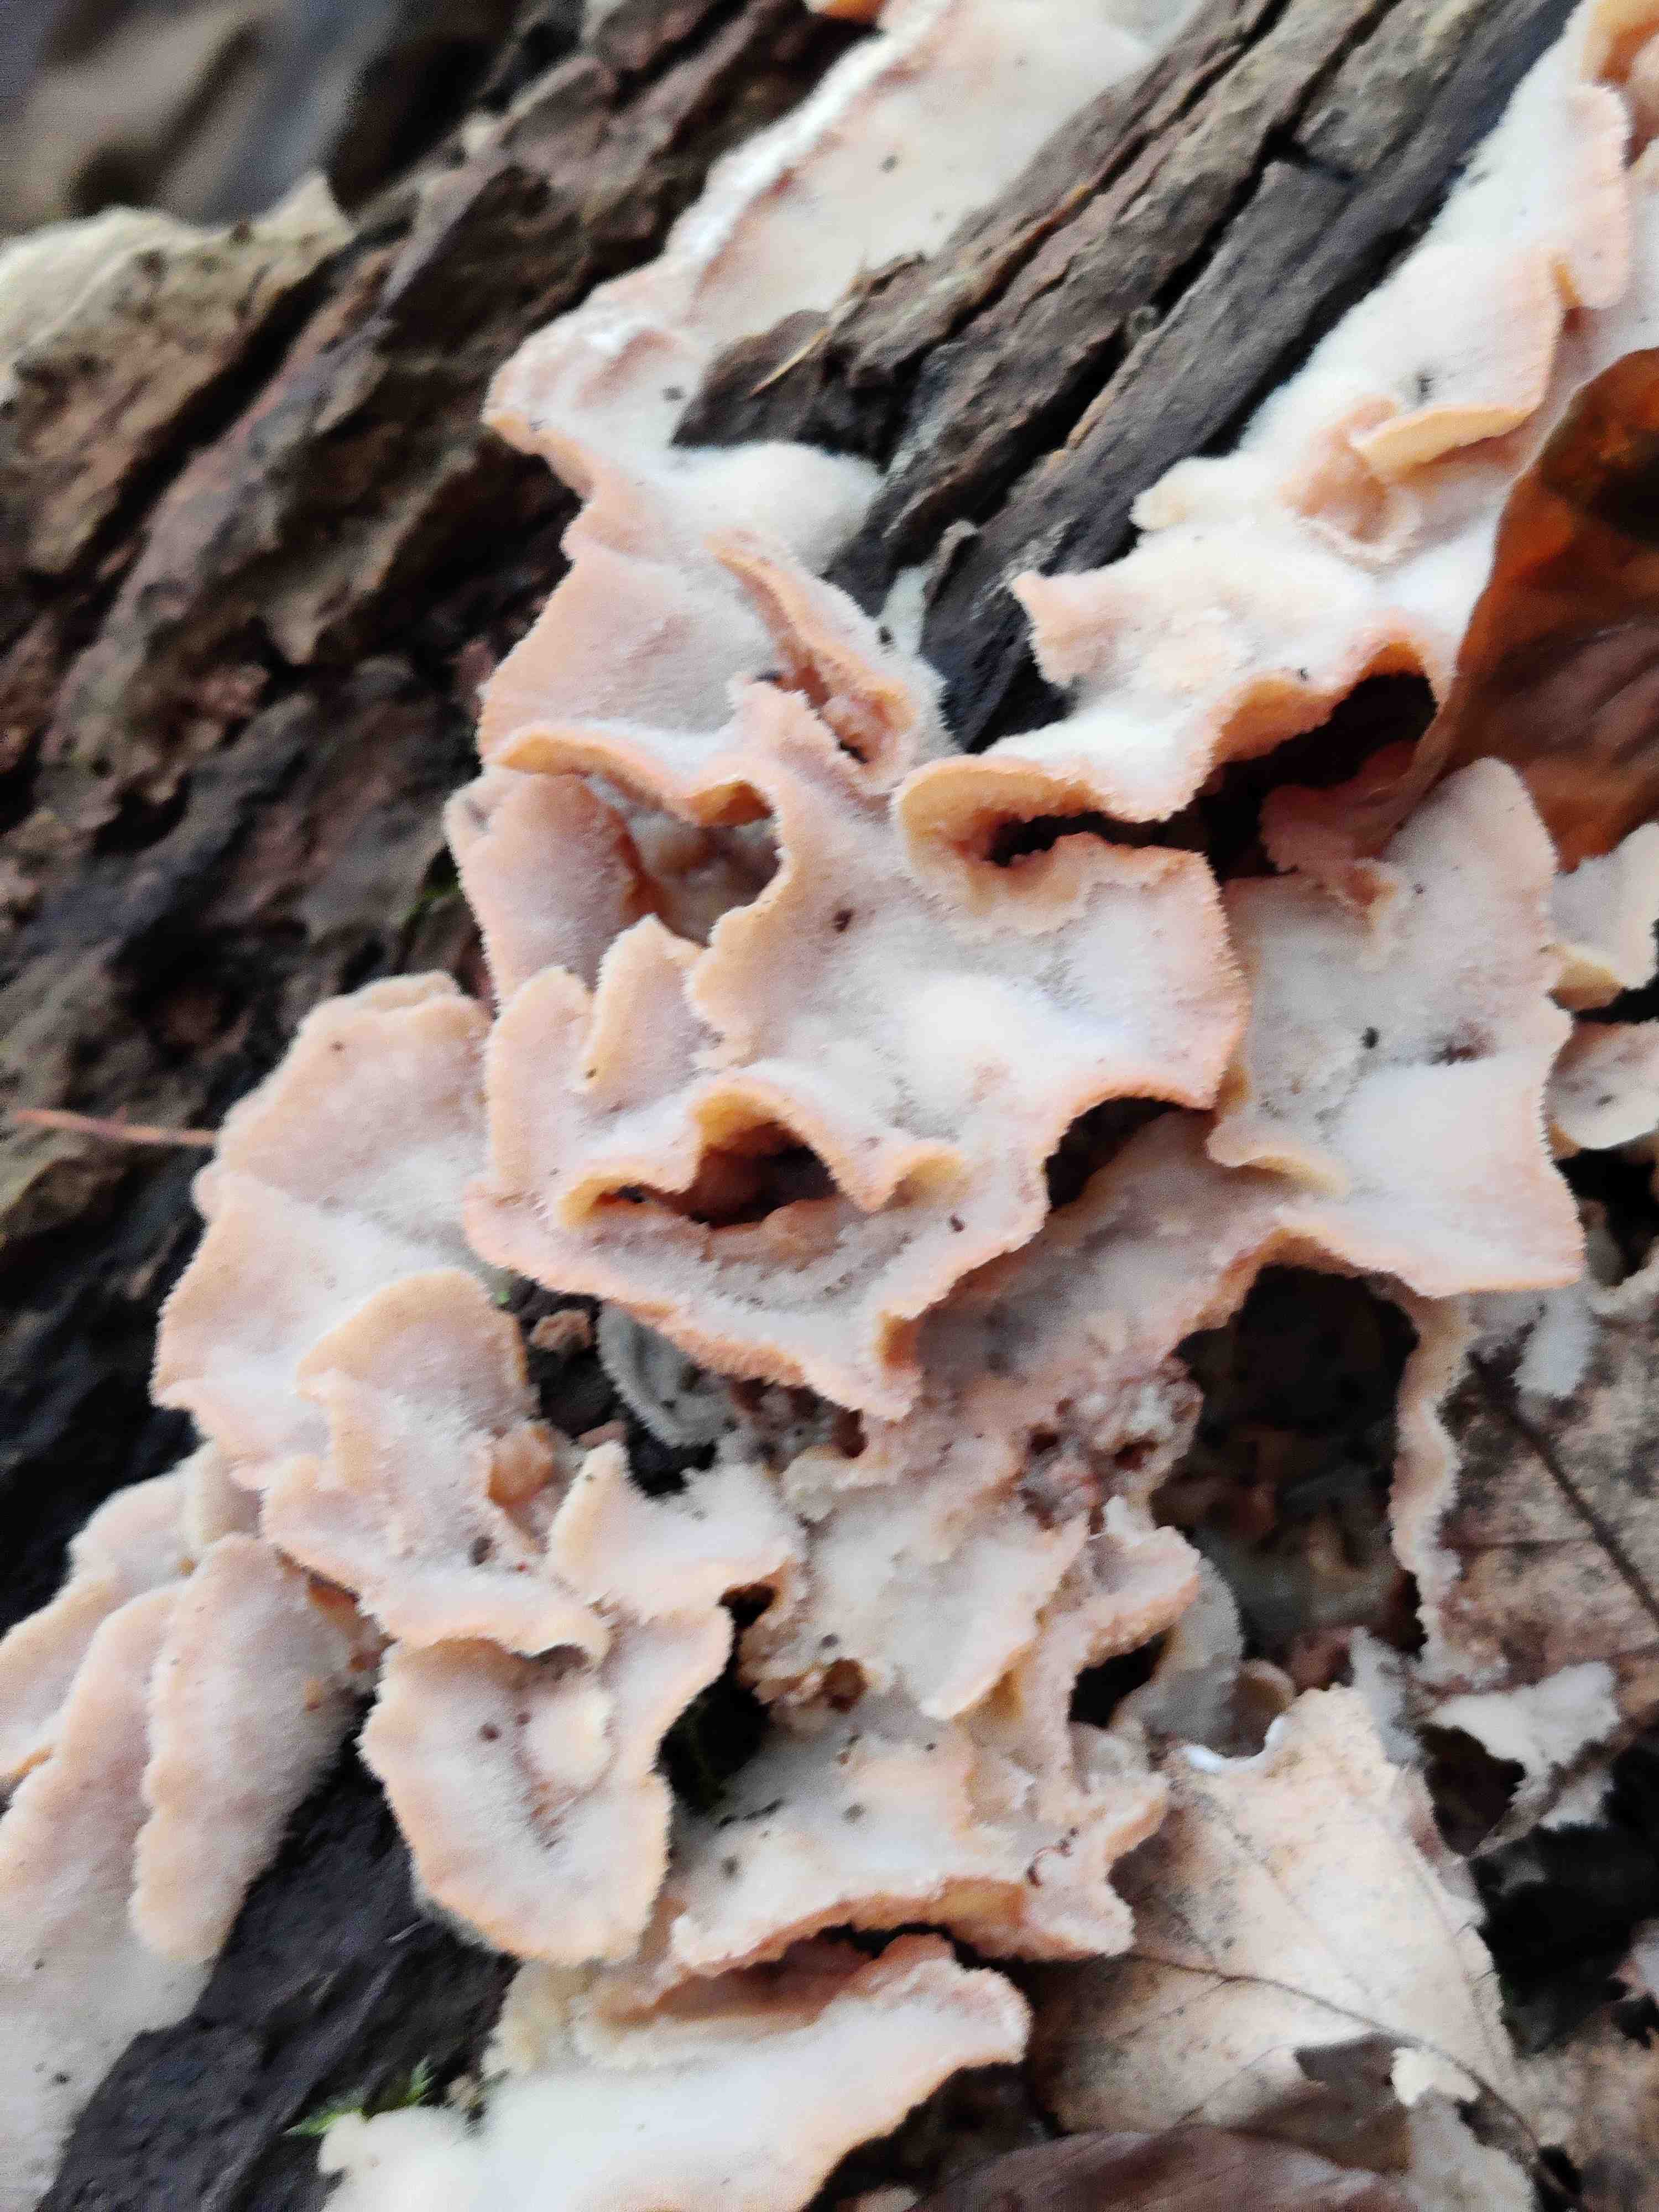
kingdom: Fungi
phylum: Basidiomycota
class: Agaricomycetes
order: Polyporales
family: Meruliaceae
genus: Phlebia
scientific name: Phlebia tremellosa
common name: bævrende åresvamp
